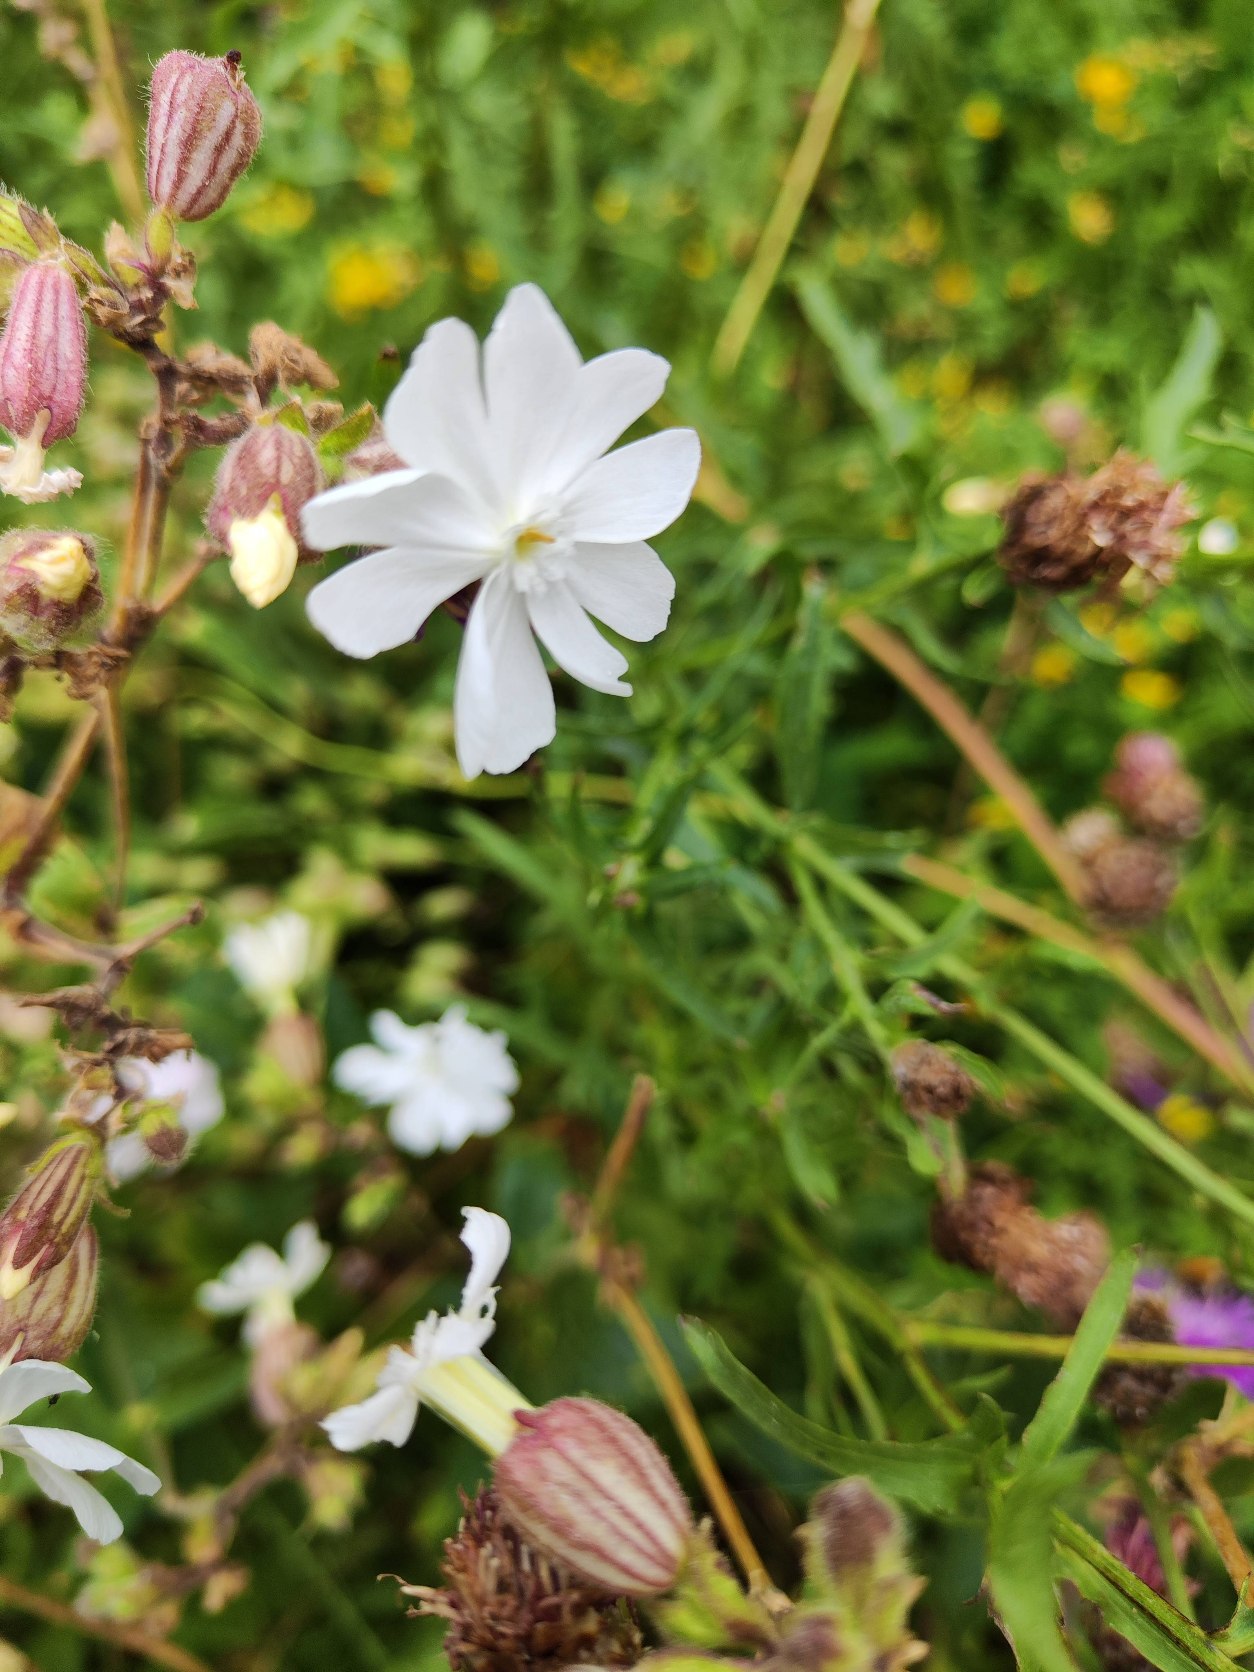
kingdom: Plantae
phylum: Tracheophyta
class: Magnoliopsida
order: Caryophyllales
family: Caryophyllaceae
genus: Silene
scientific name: Silene latifolia
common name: Aftenpragtstjerne
